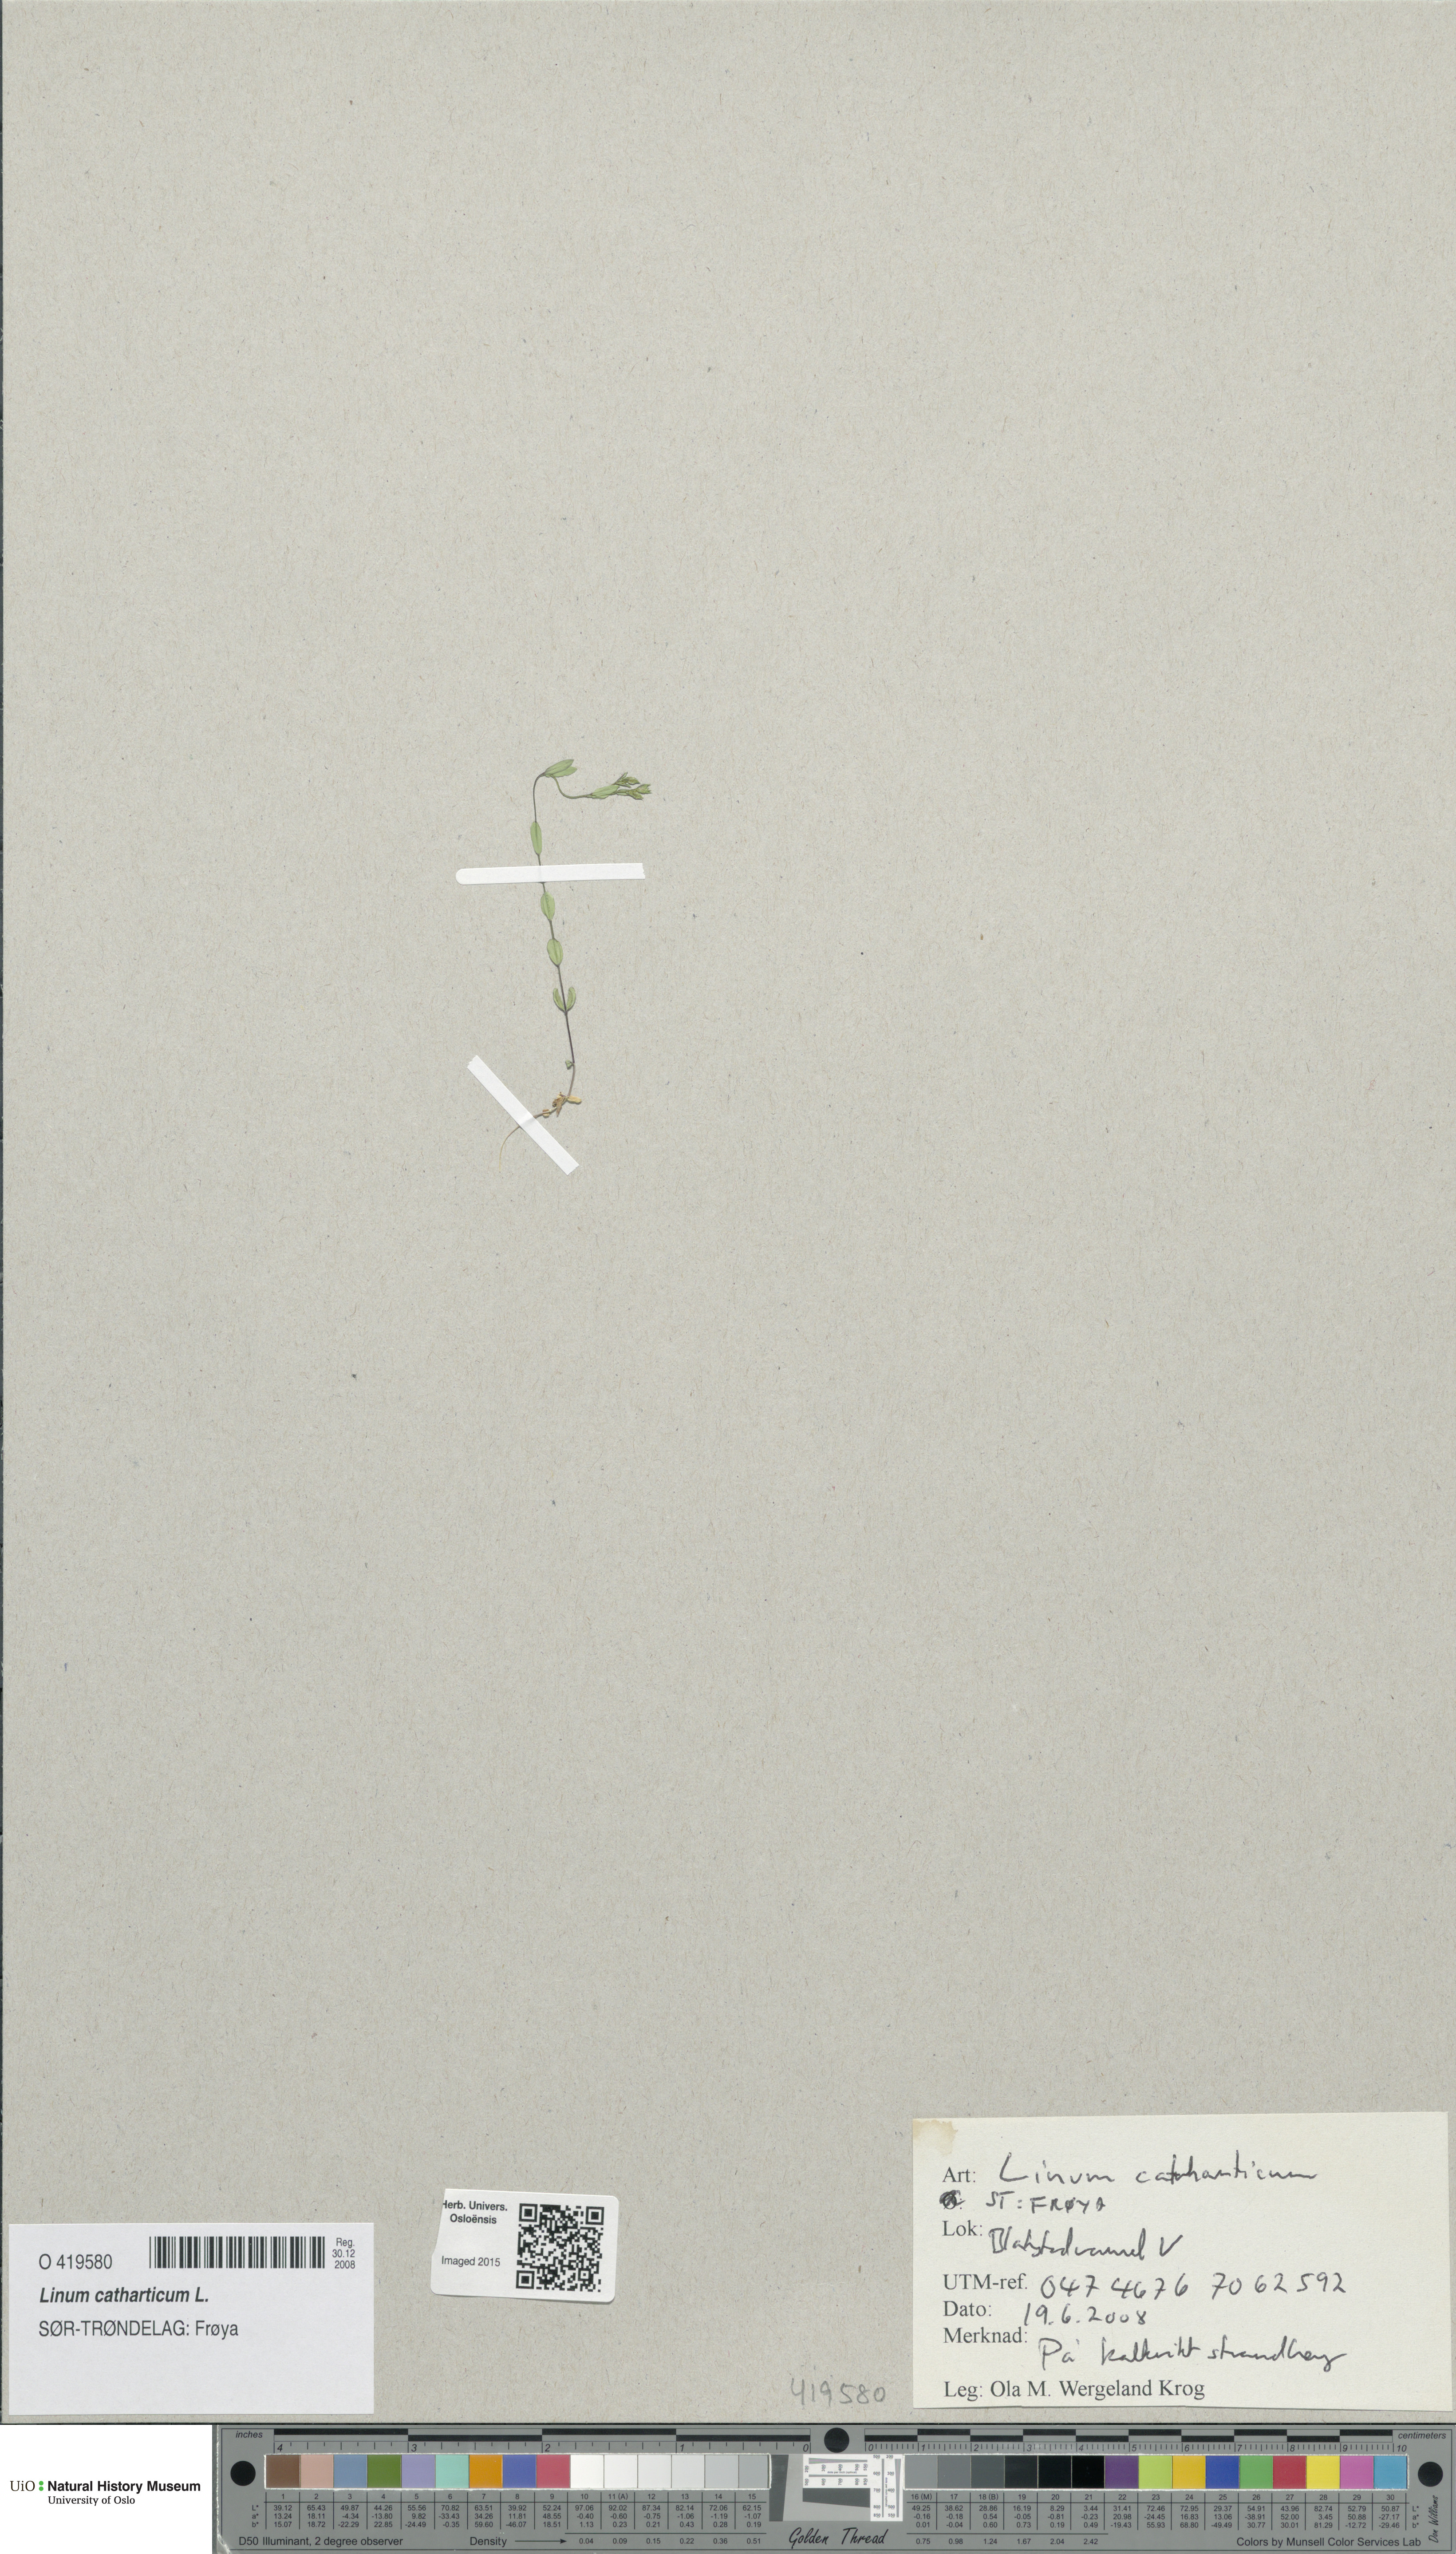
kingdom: Plantae
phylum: Tracheophyta
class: Magnoliopsida
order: Malpighiales
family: Linaceae
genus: Linum
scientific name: Linum catharticum
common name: Fairy flax
